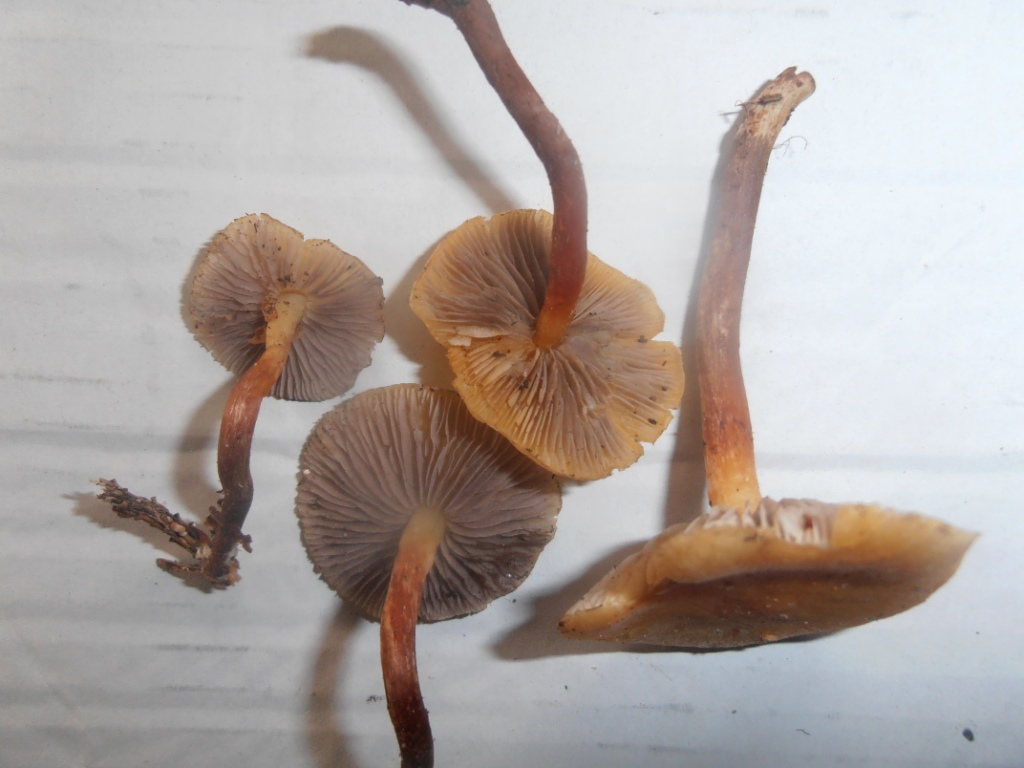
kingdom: Fungi
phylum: Basidiomycota
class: Agaricomycetes
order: Agaricales
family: Strophariaceae
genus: Hypholoma
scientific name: Hypholoma capnoides
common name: gran-svovlhat
